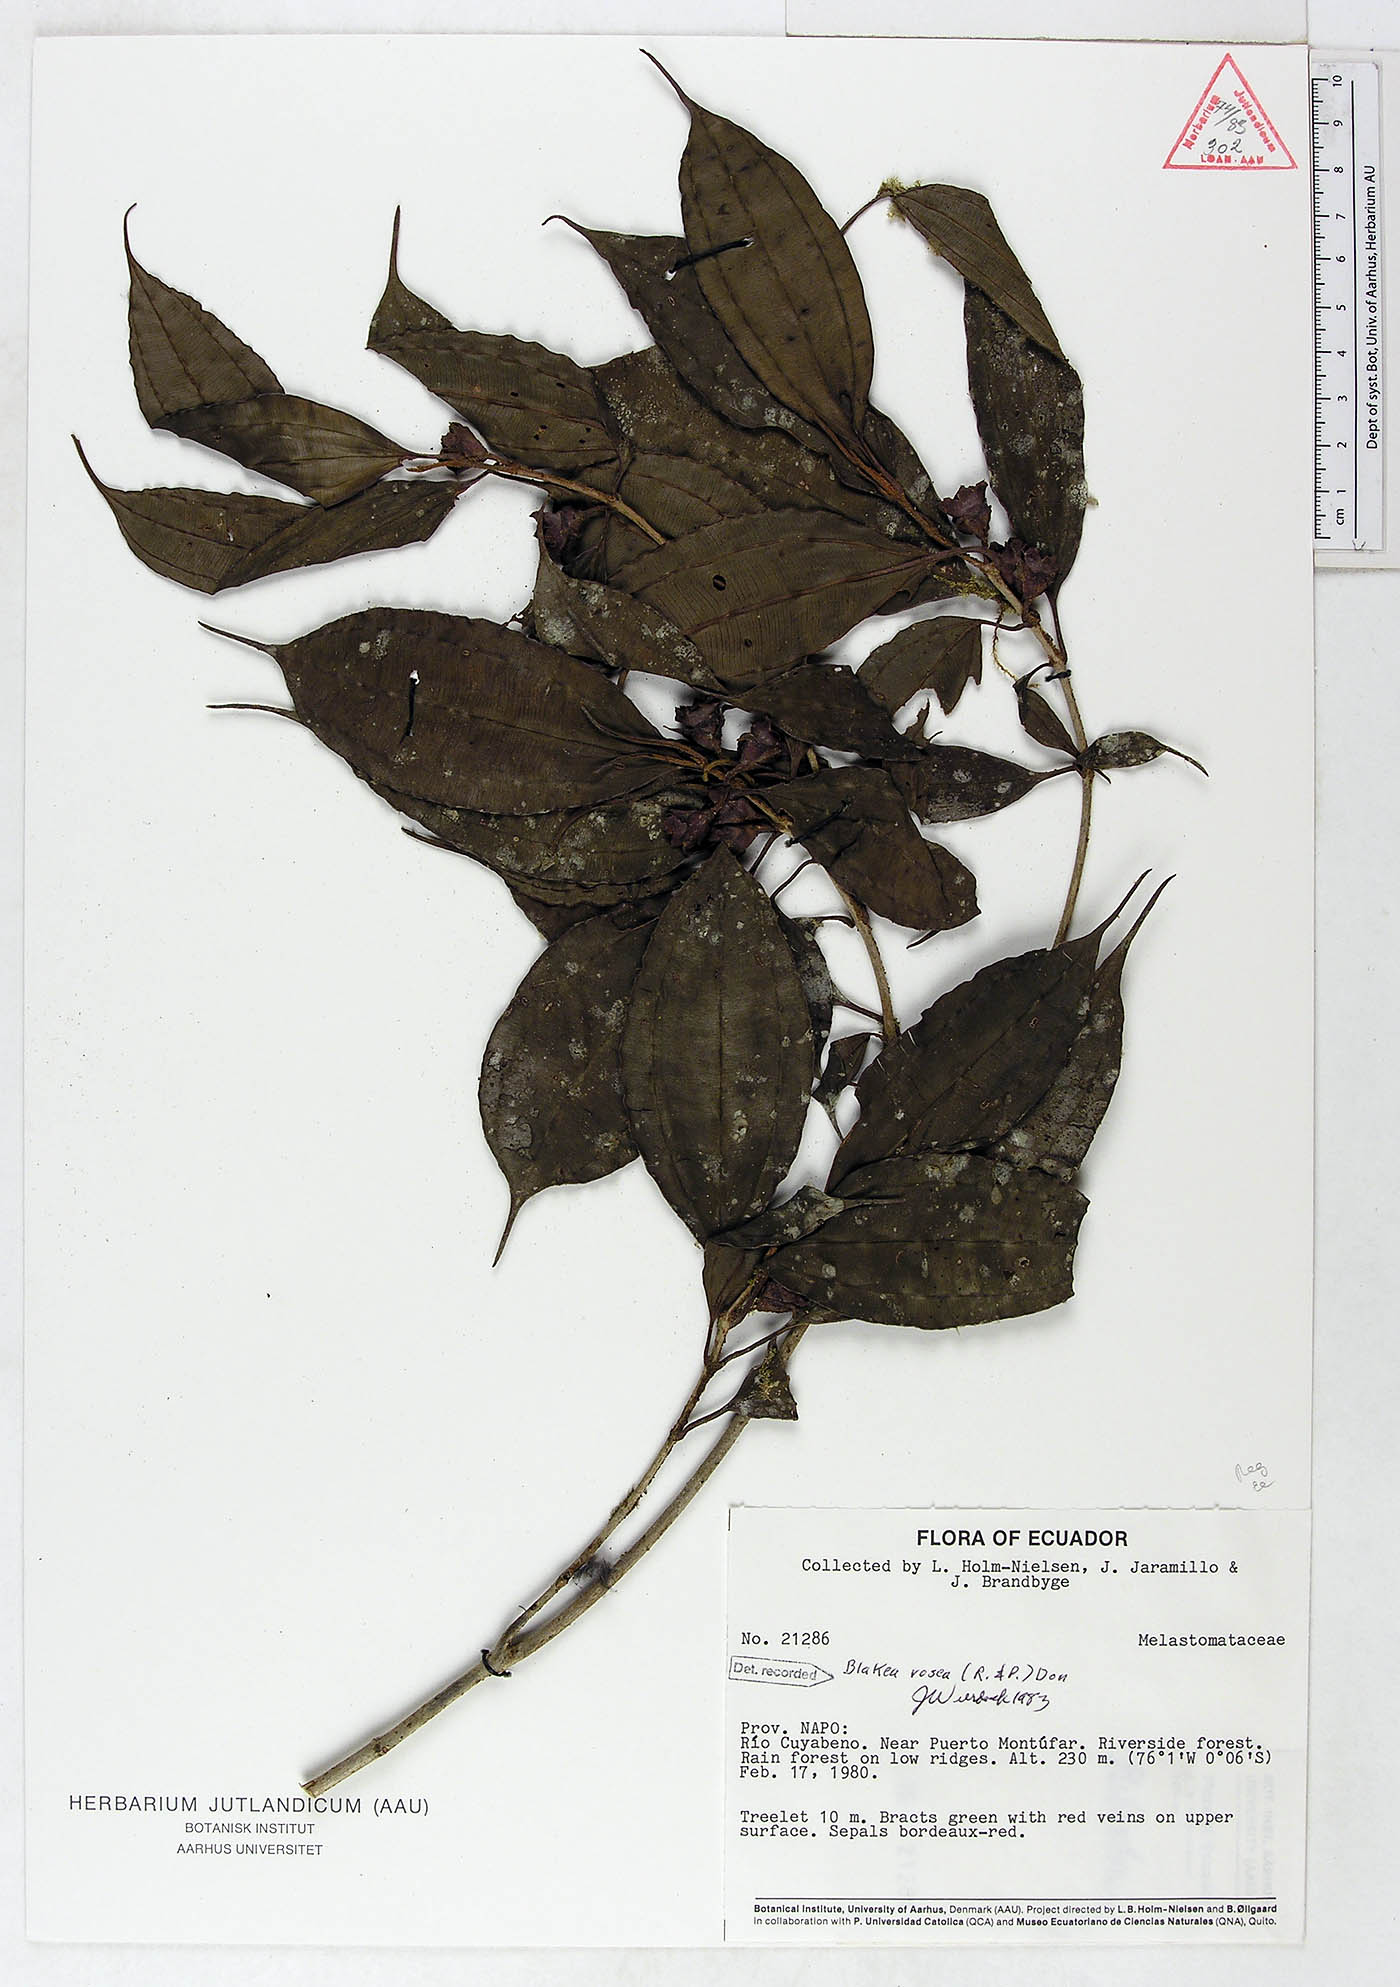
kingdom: Plantae
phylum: Tracheophyta
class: Magnoliopsida
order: Myrtales
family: Melastomataceae
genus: Blakea
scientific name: Blakea rosea
